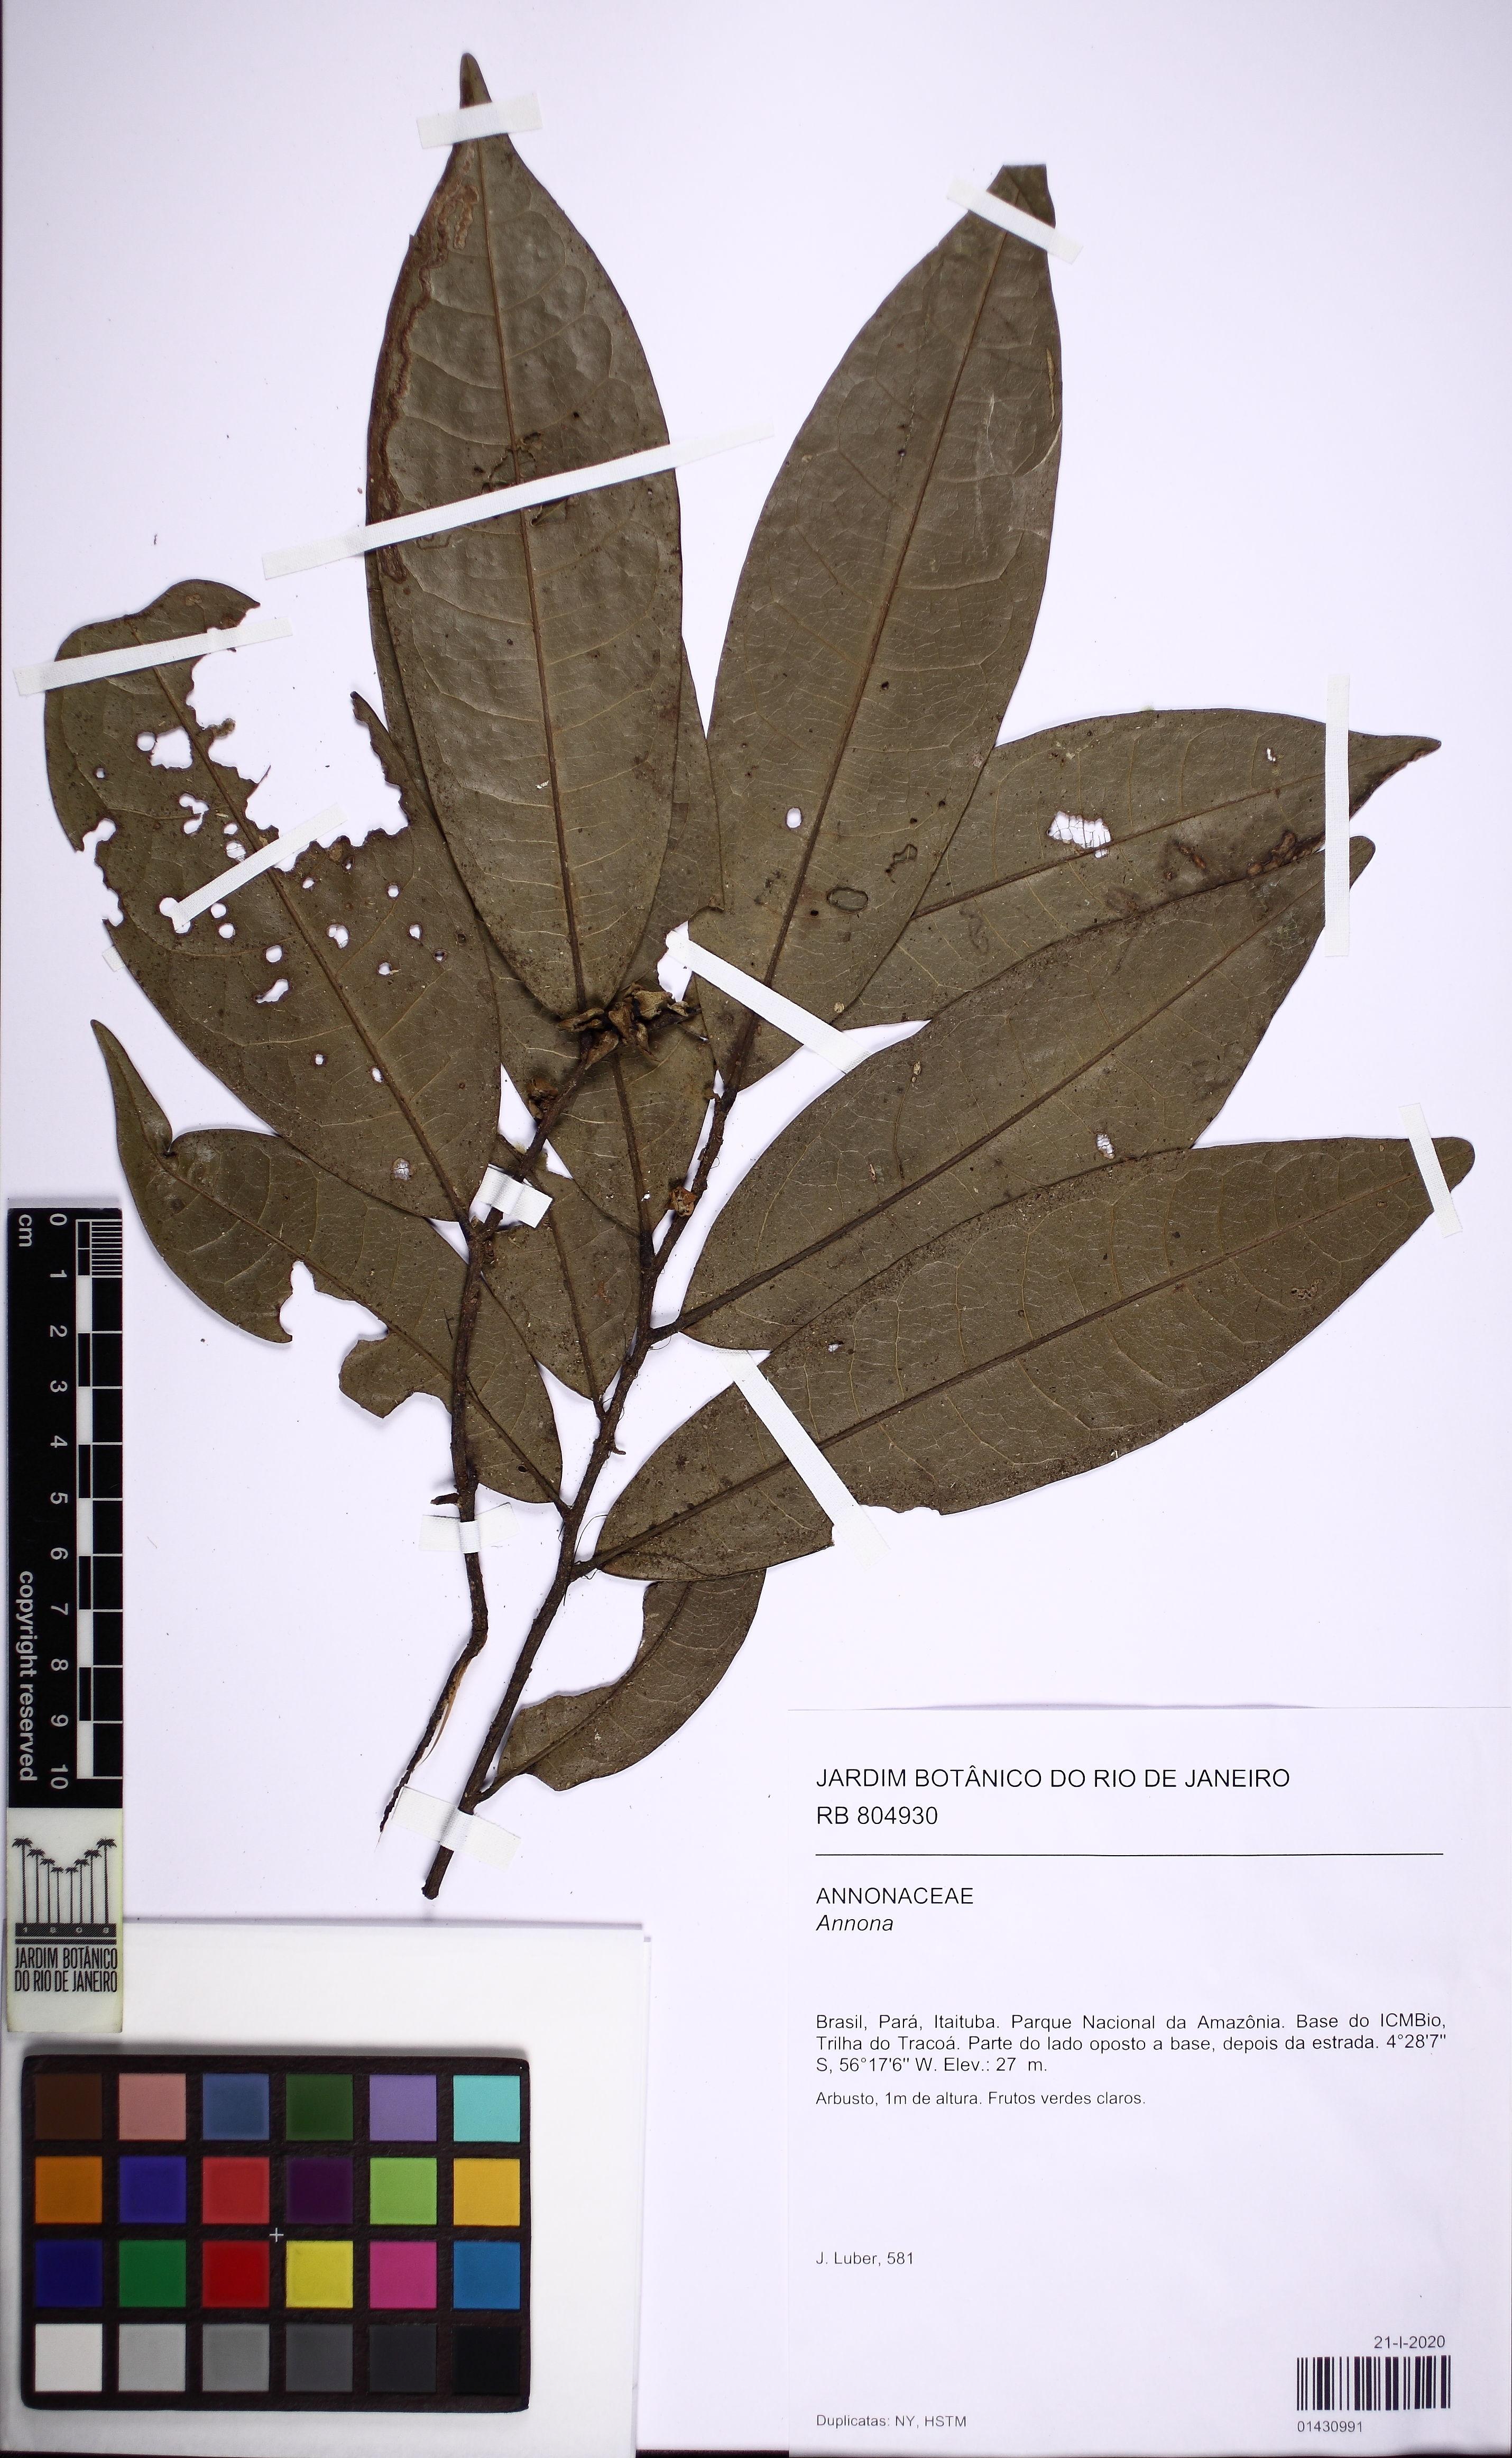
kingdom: Plantae
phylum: Tracheophyta
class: Magnoliopsida
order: Magnoliales
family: Annonaceae
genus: Annona
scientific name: Annona
